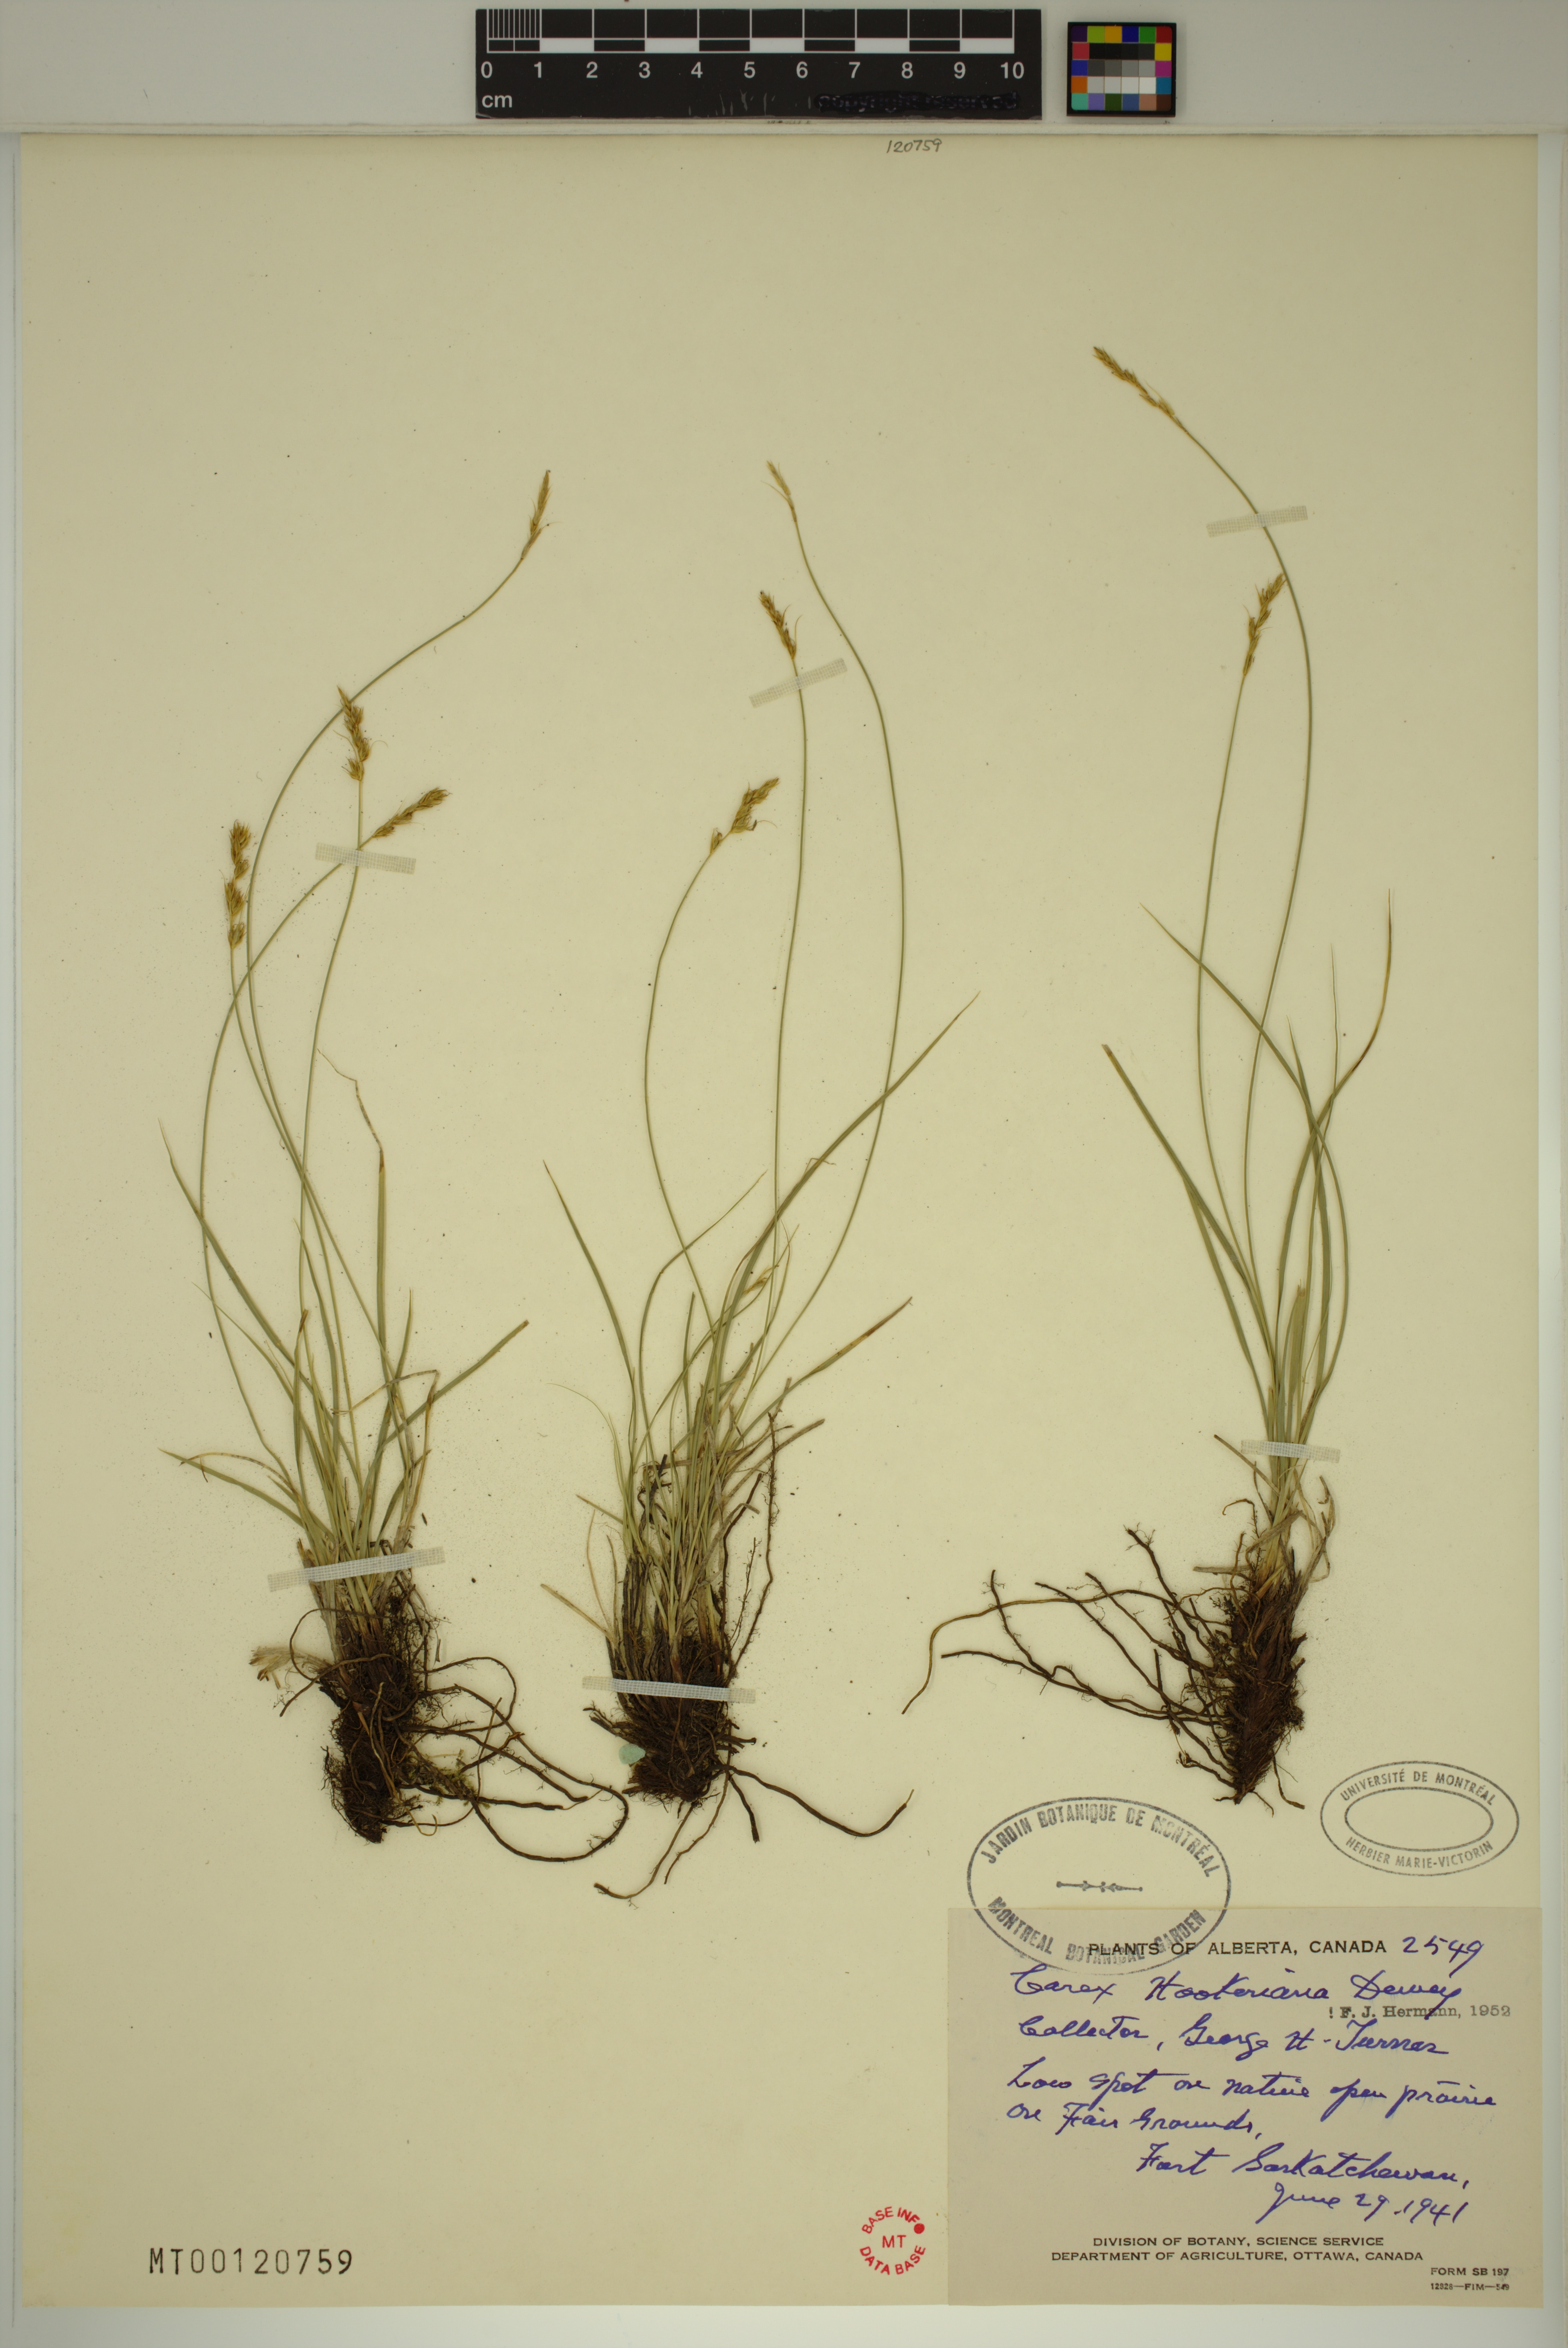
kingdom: Plantae
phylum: Tracheophyta
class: Liliopsida
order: Poales
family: Cyperaceae
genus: Carex
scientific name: Carex hookeriana
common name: Hooker's sedge
